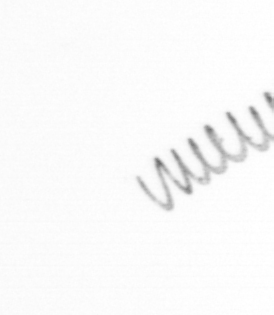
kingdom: Chromista
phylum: Ochrophyta
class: Bacillariophyceae
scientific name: Bacillariophyceae
